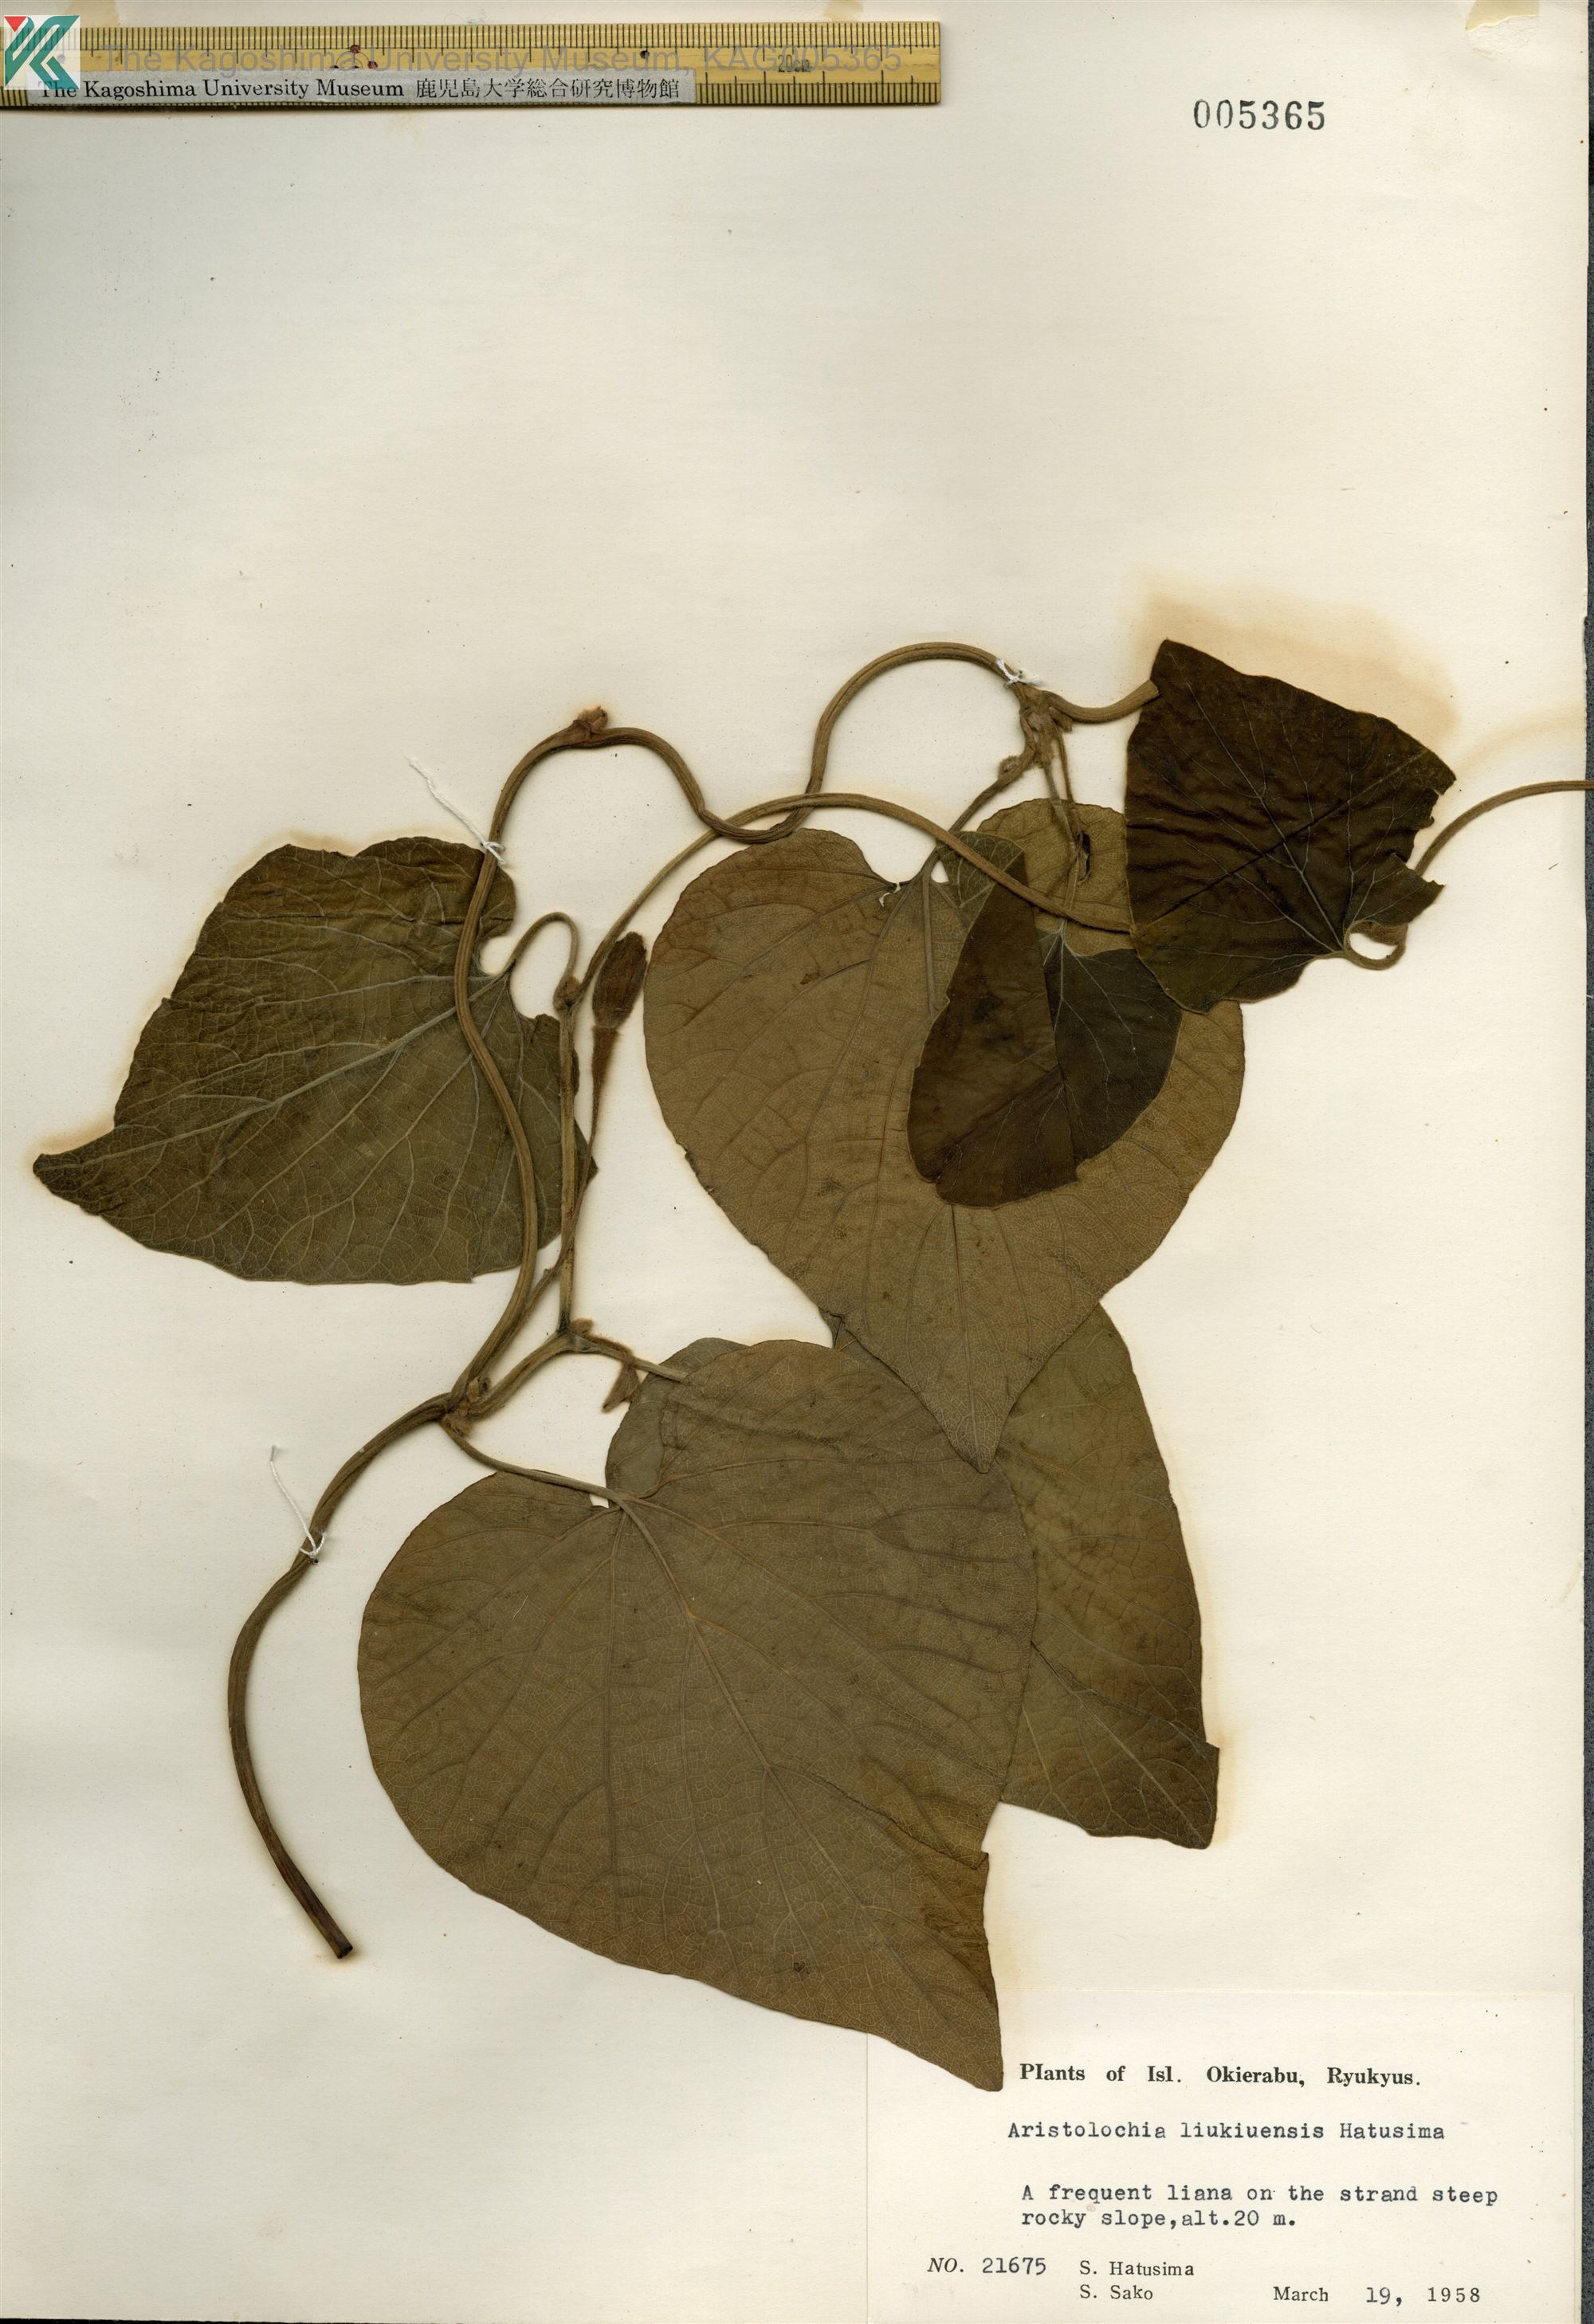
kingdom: Plantae
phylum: Tracheophyta
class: Magnoliopsida
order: Piperales
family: Aristolochiaceae
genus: Isotrema
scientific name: Isotrema liukiuense
